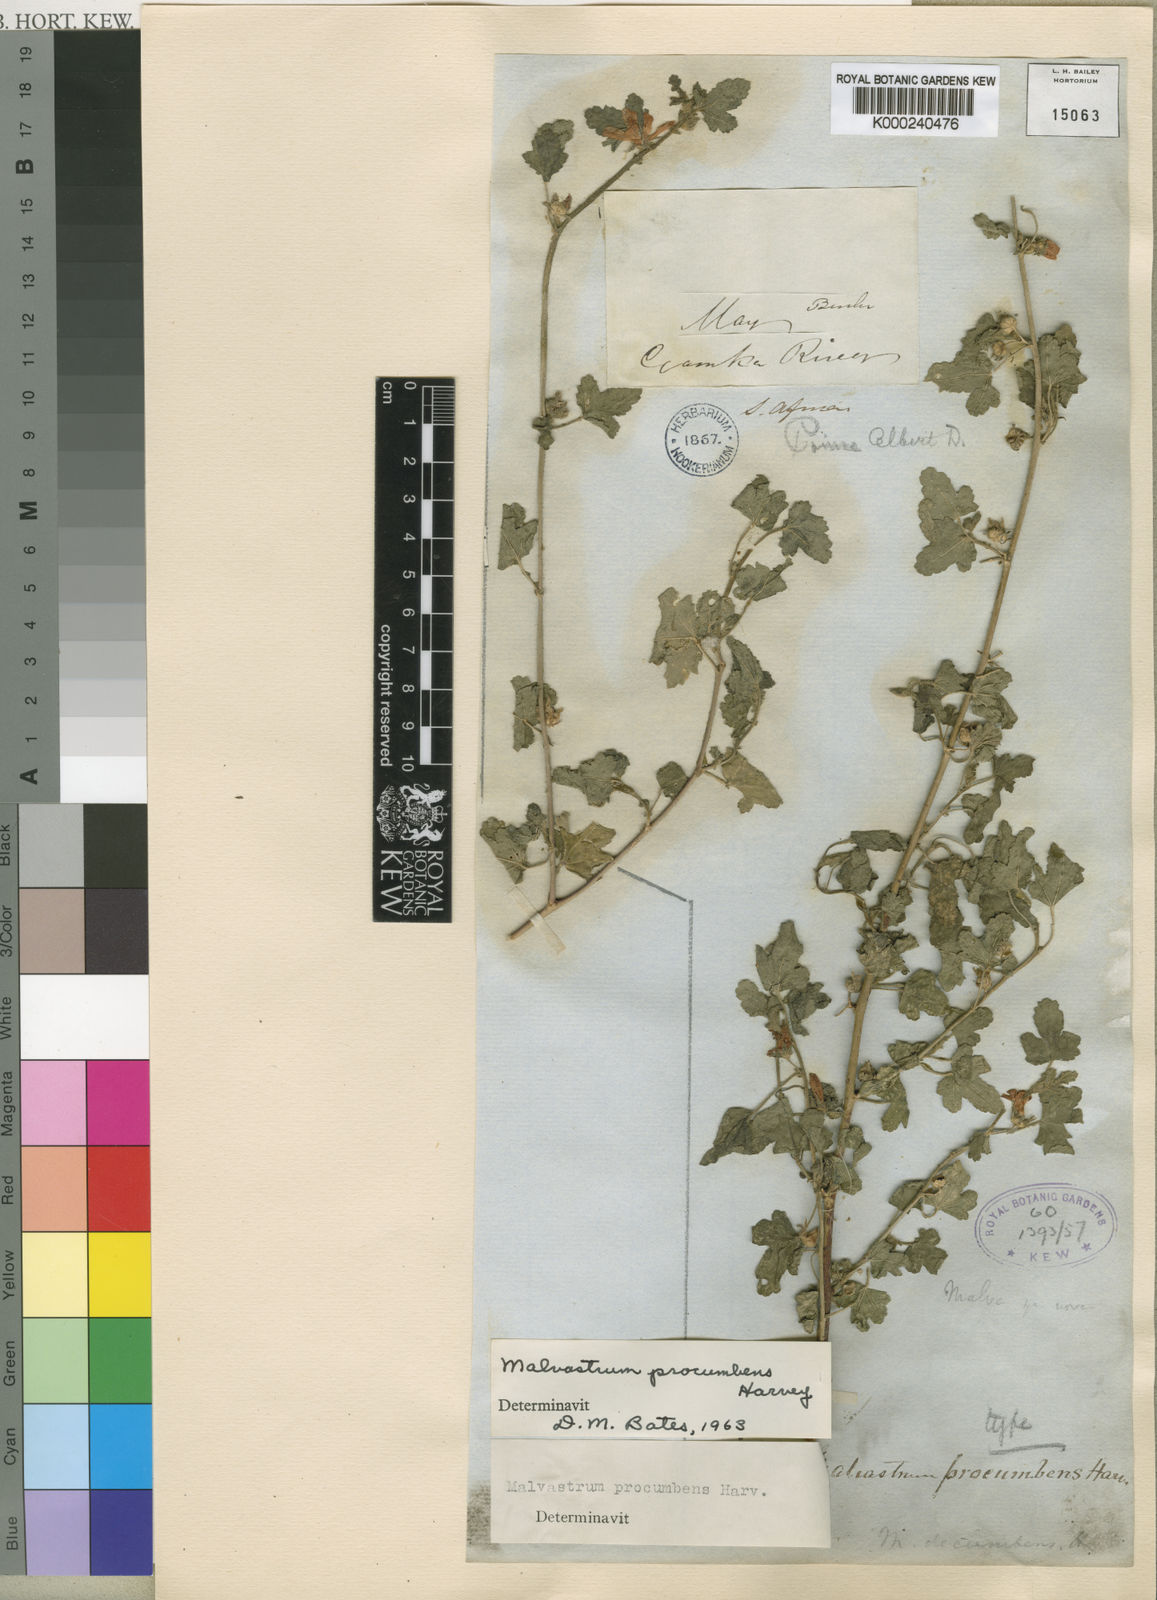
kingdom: Plantae
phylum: Tracheophyta
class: Magnoliopsida
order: Malvales
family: Malvaceae
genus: Anisodontea
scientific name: Anisodontea procumbens
